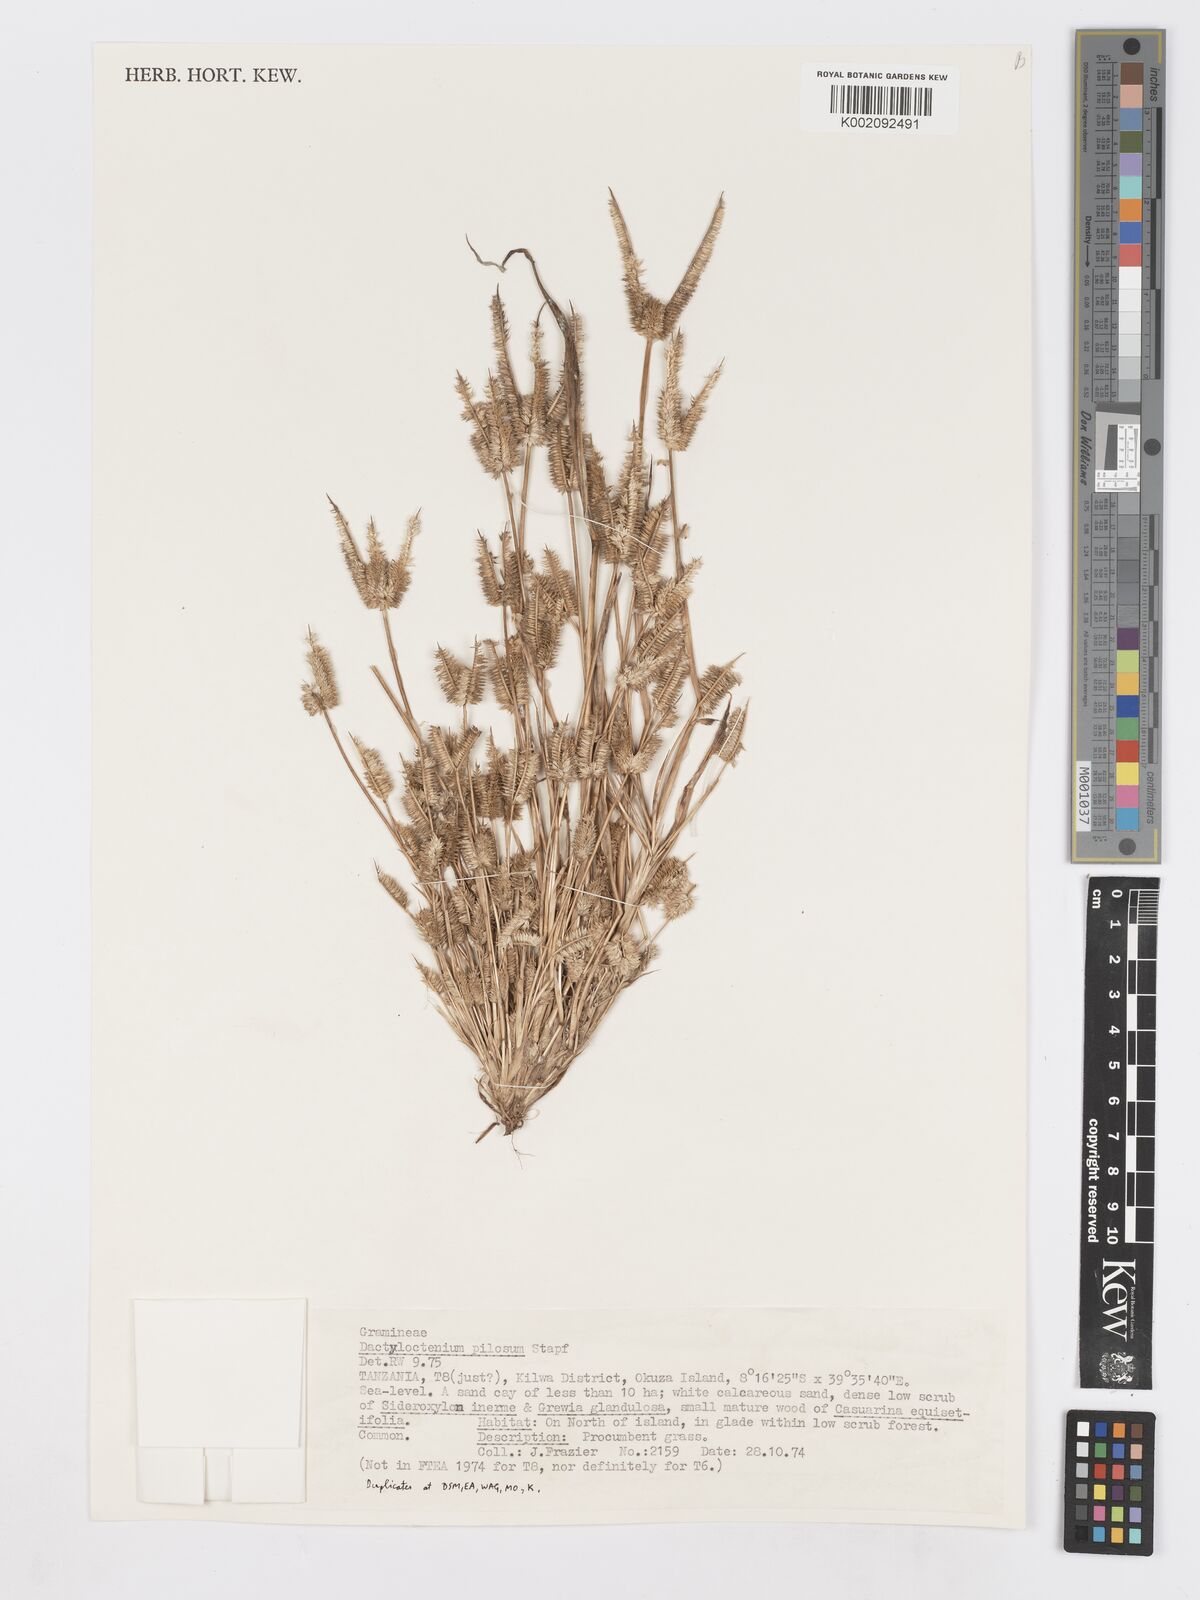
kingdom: Plantae
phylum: Tracheophyta
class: Liliopsida
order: Poales
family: Poaceae
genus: Dactyloctenium
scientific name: Dactyloctenium pilosum
